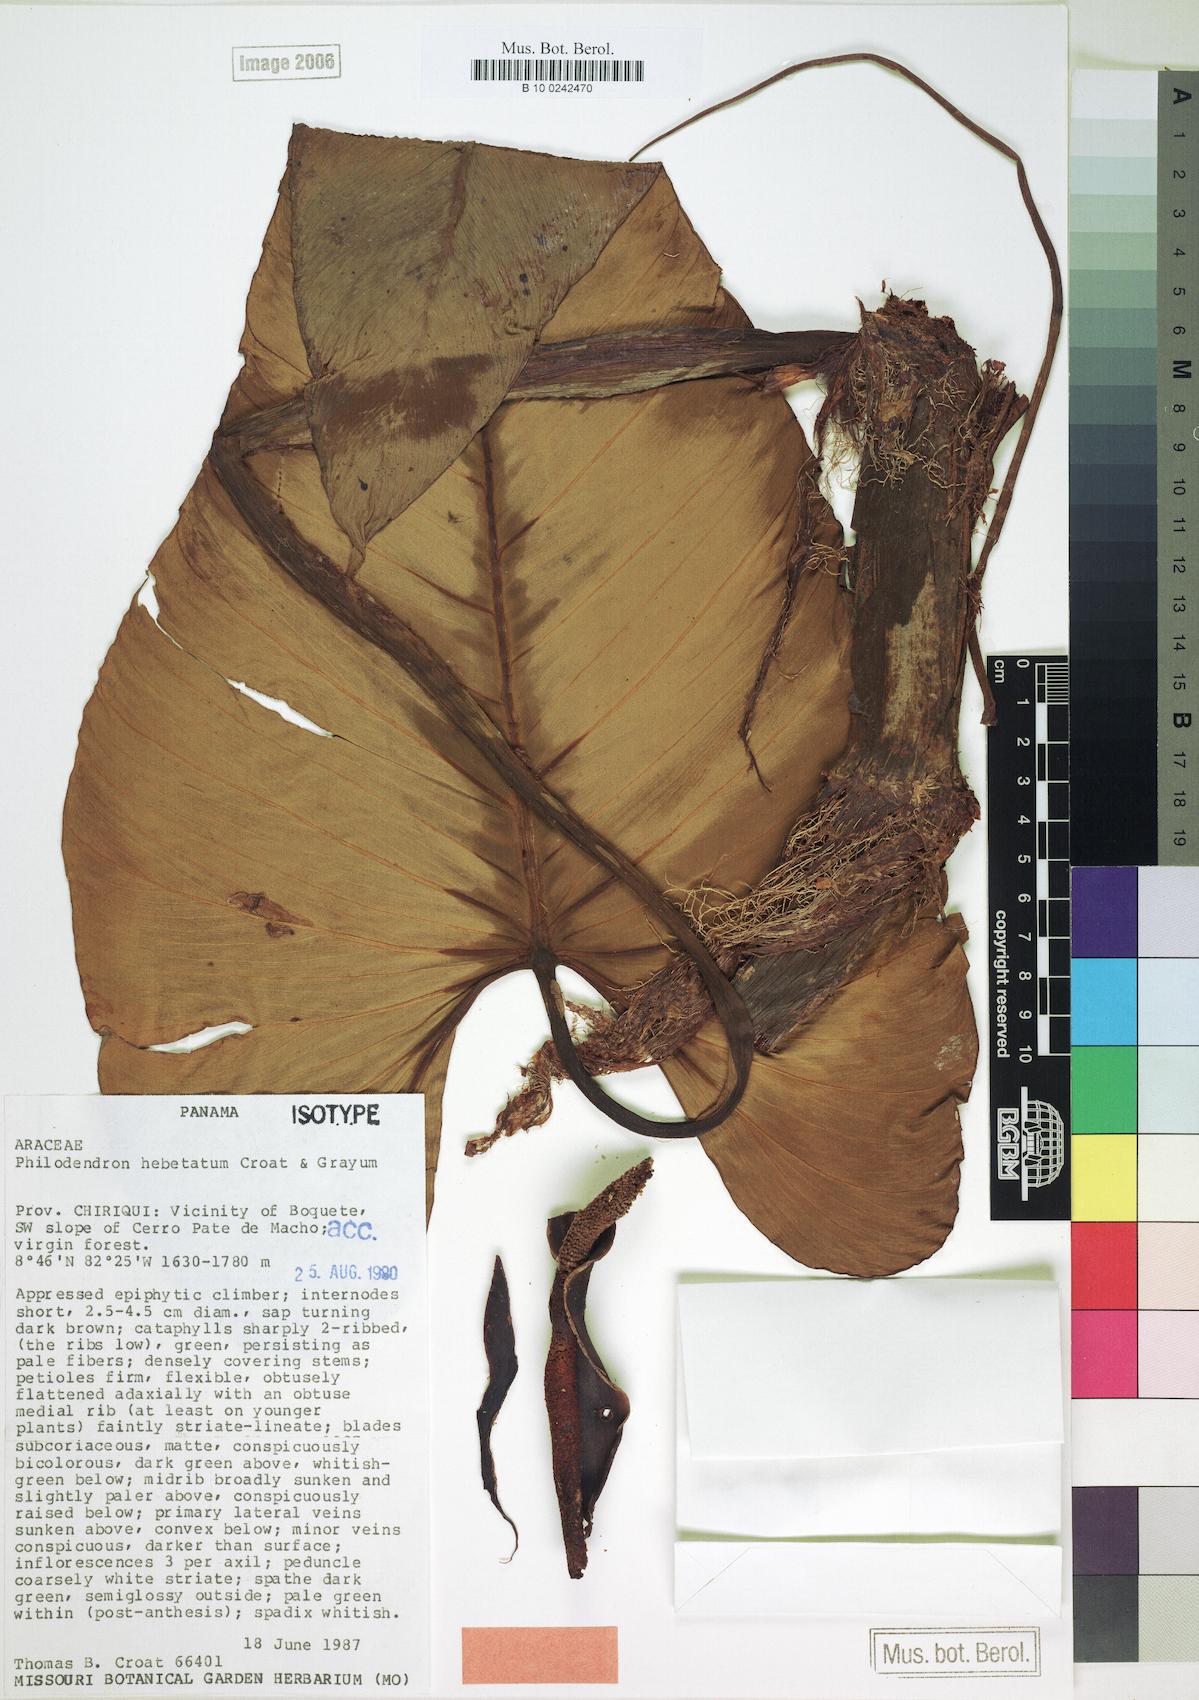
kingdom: Plantae
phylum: Tracheophyta
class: Liliopsida
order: Alismatales
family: Araceae
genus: Philodendron
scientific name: Philodendron hebetatum
